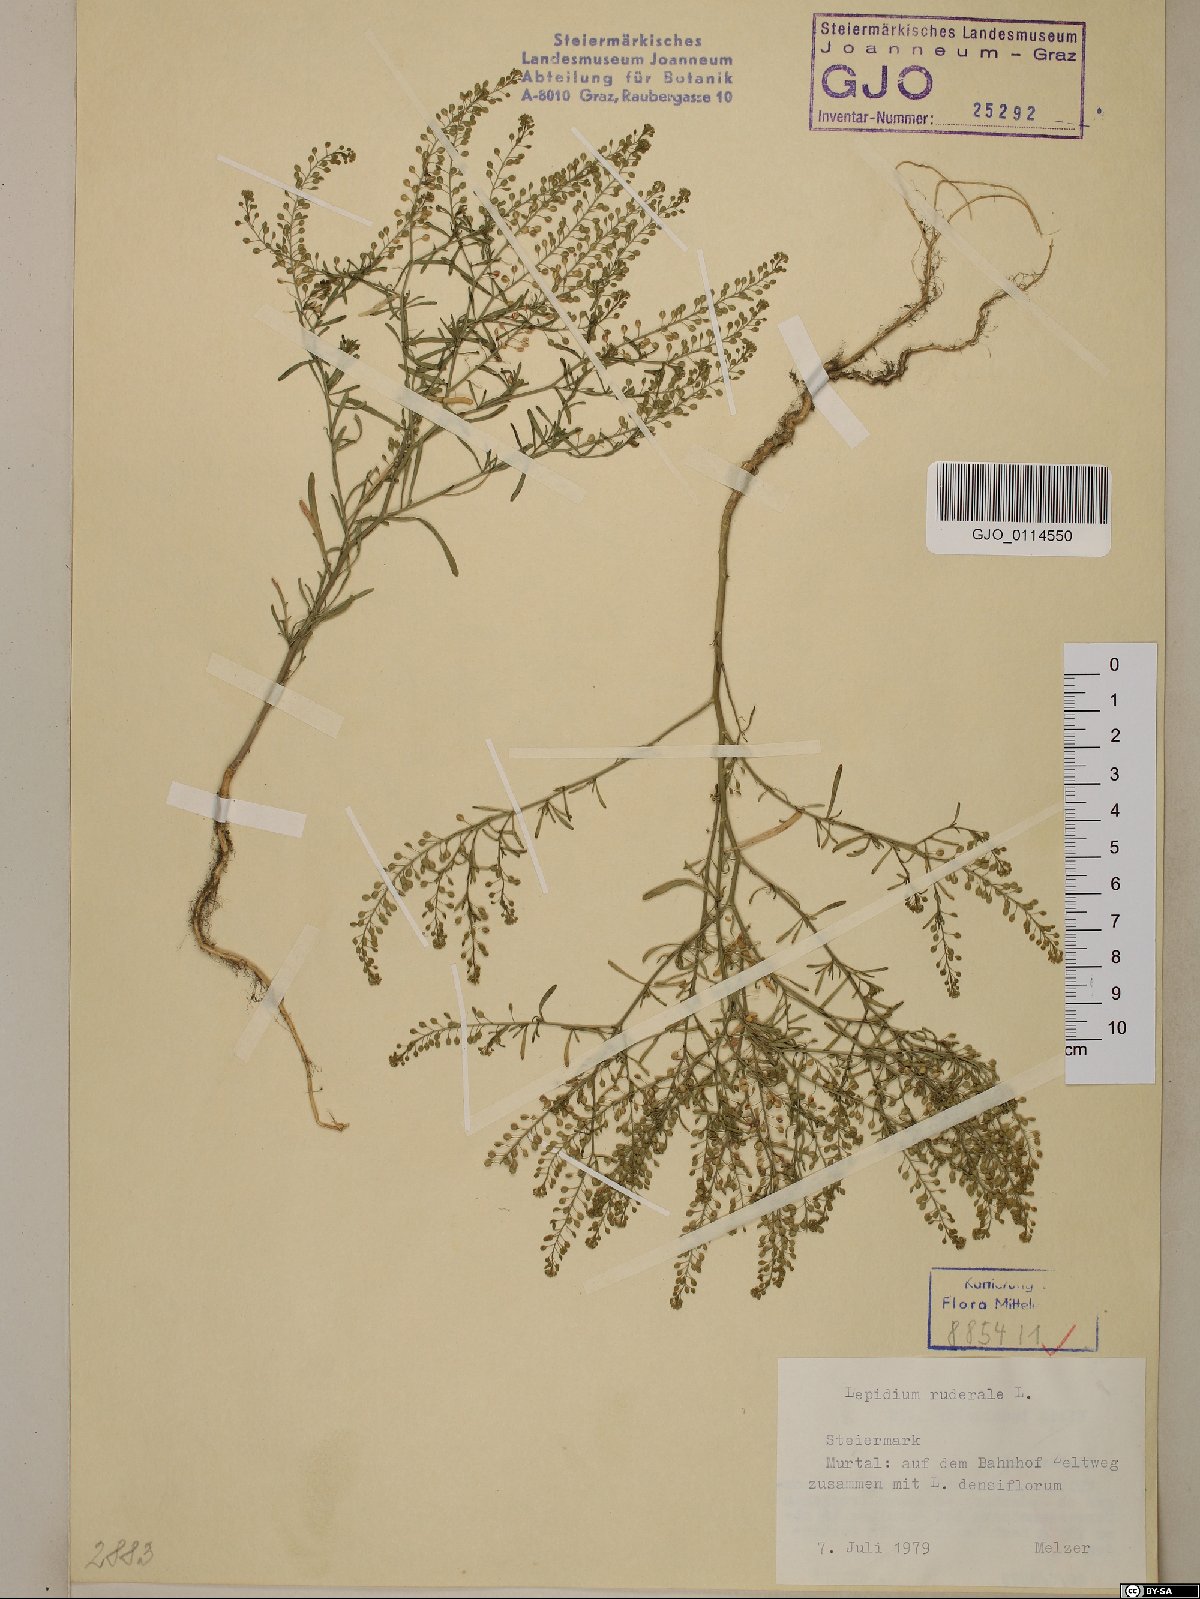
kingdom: Plantae
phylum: Tracheophyta
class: Magnoliopsida
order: Brassicales
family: Brassicaceae
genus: Lepidium
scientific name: Lepidium ruderale
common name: Narrow-leaved pepperwort
